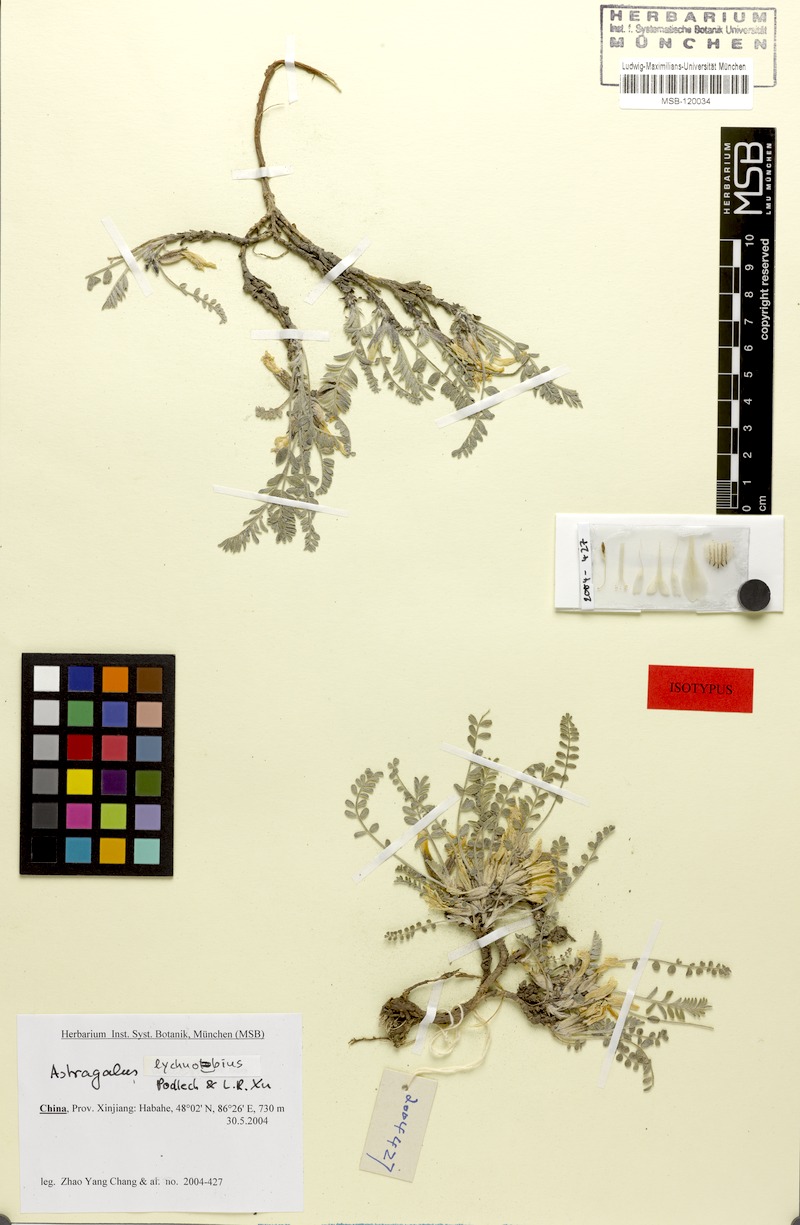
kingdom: Plantae
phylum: Tracheophyta
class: Magnoliopsida
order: Fabales
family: Fabaceae
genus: Astragalus
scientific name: Astragalus lychnobius
